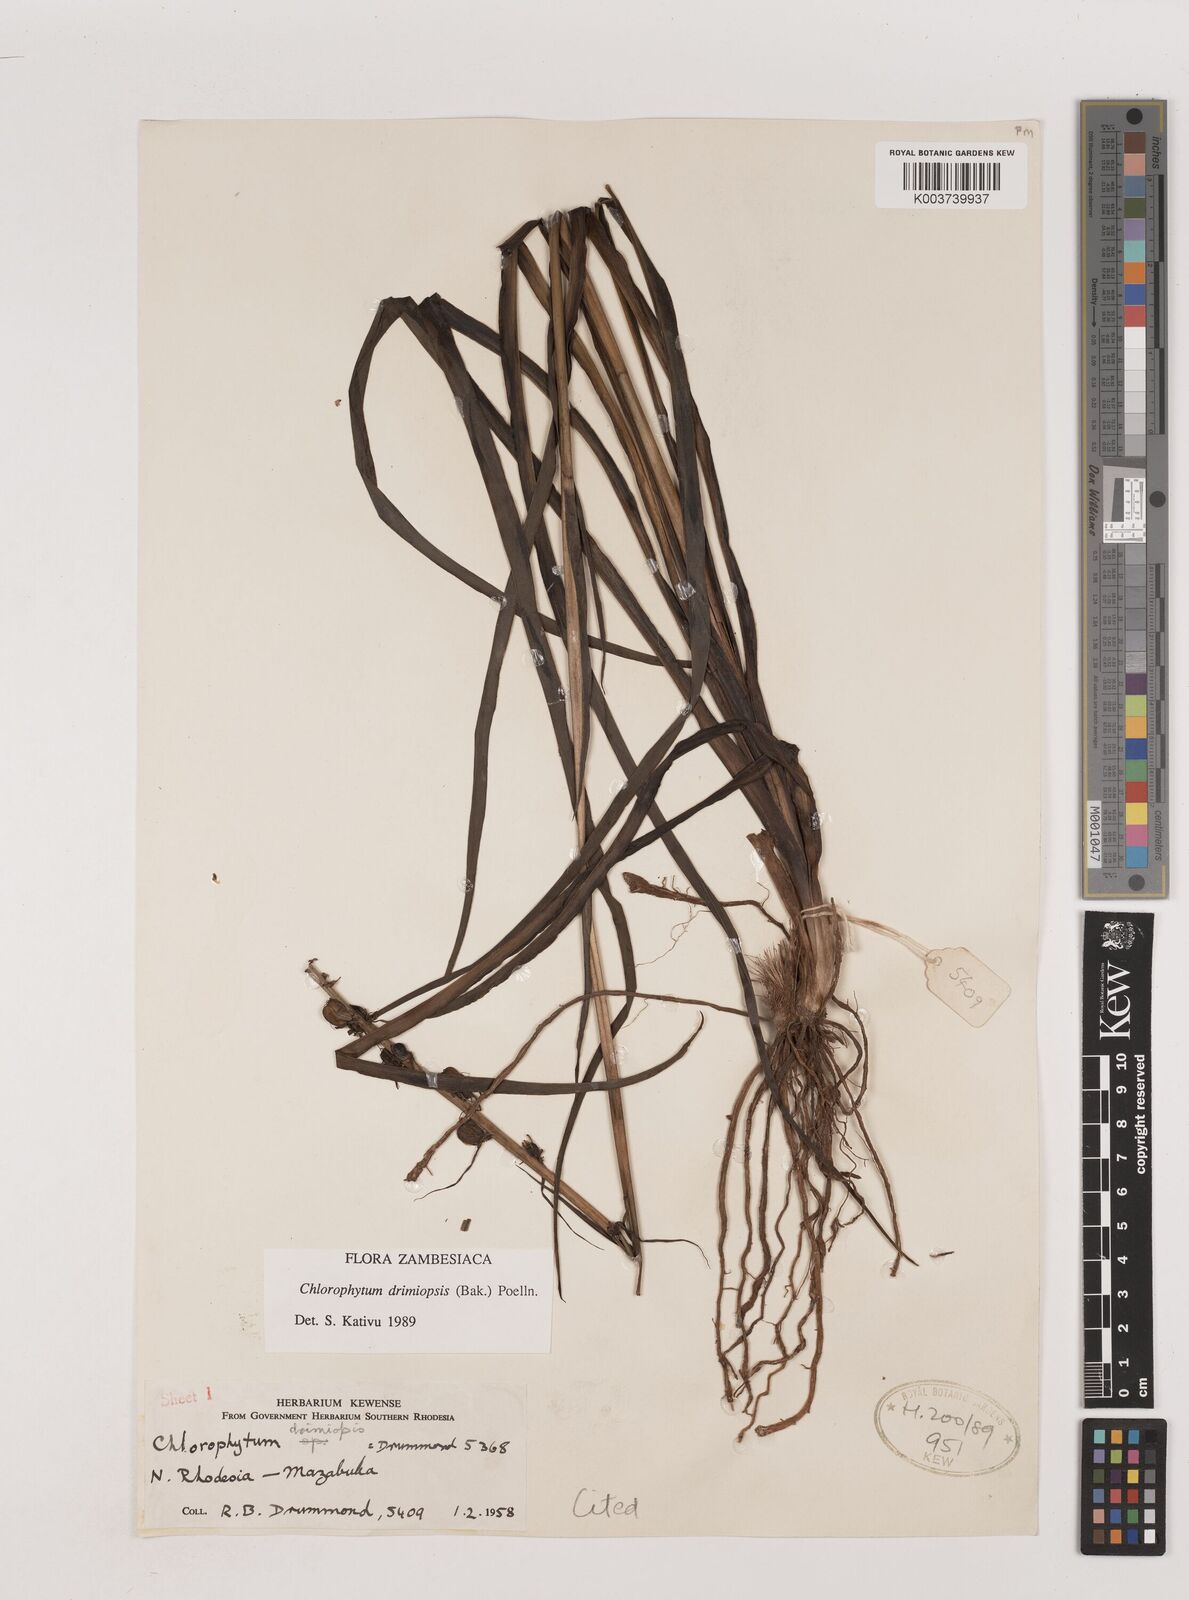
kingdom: Plantae
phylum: Tracheophyta
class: Liliopsida
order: Asparagales
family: Asparagaceae
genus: Chlorophytum
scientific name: Chlorophytum longifolium
